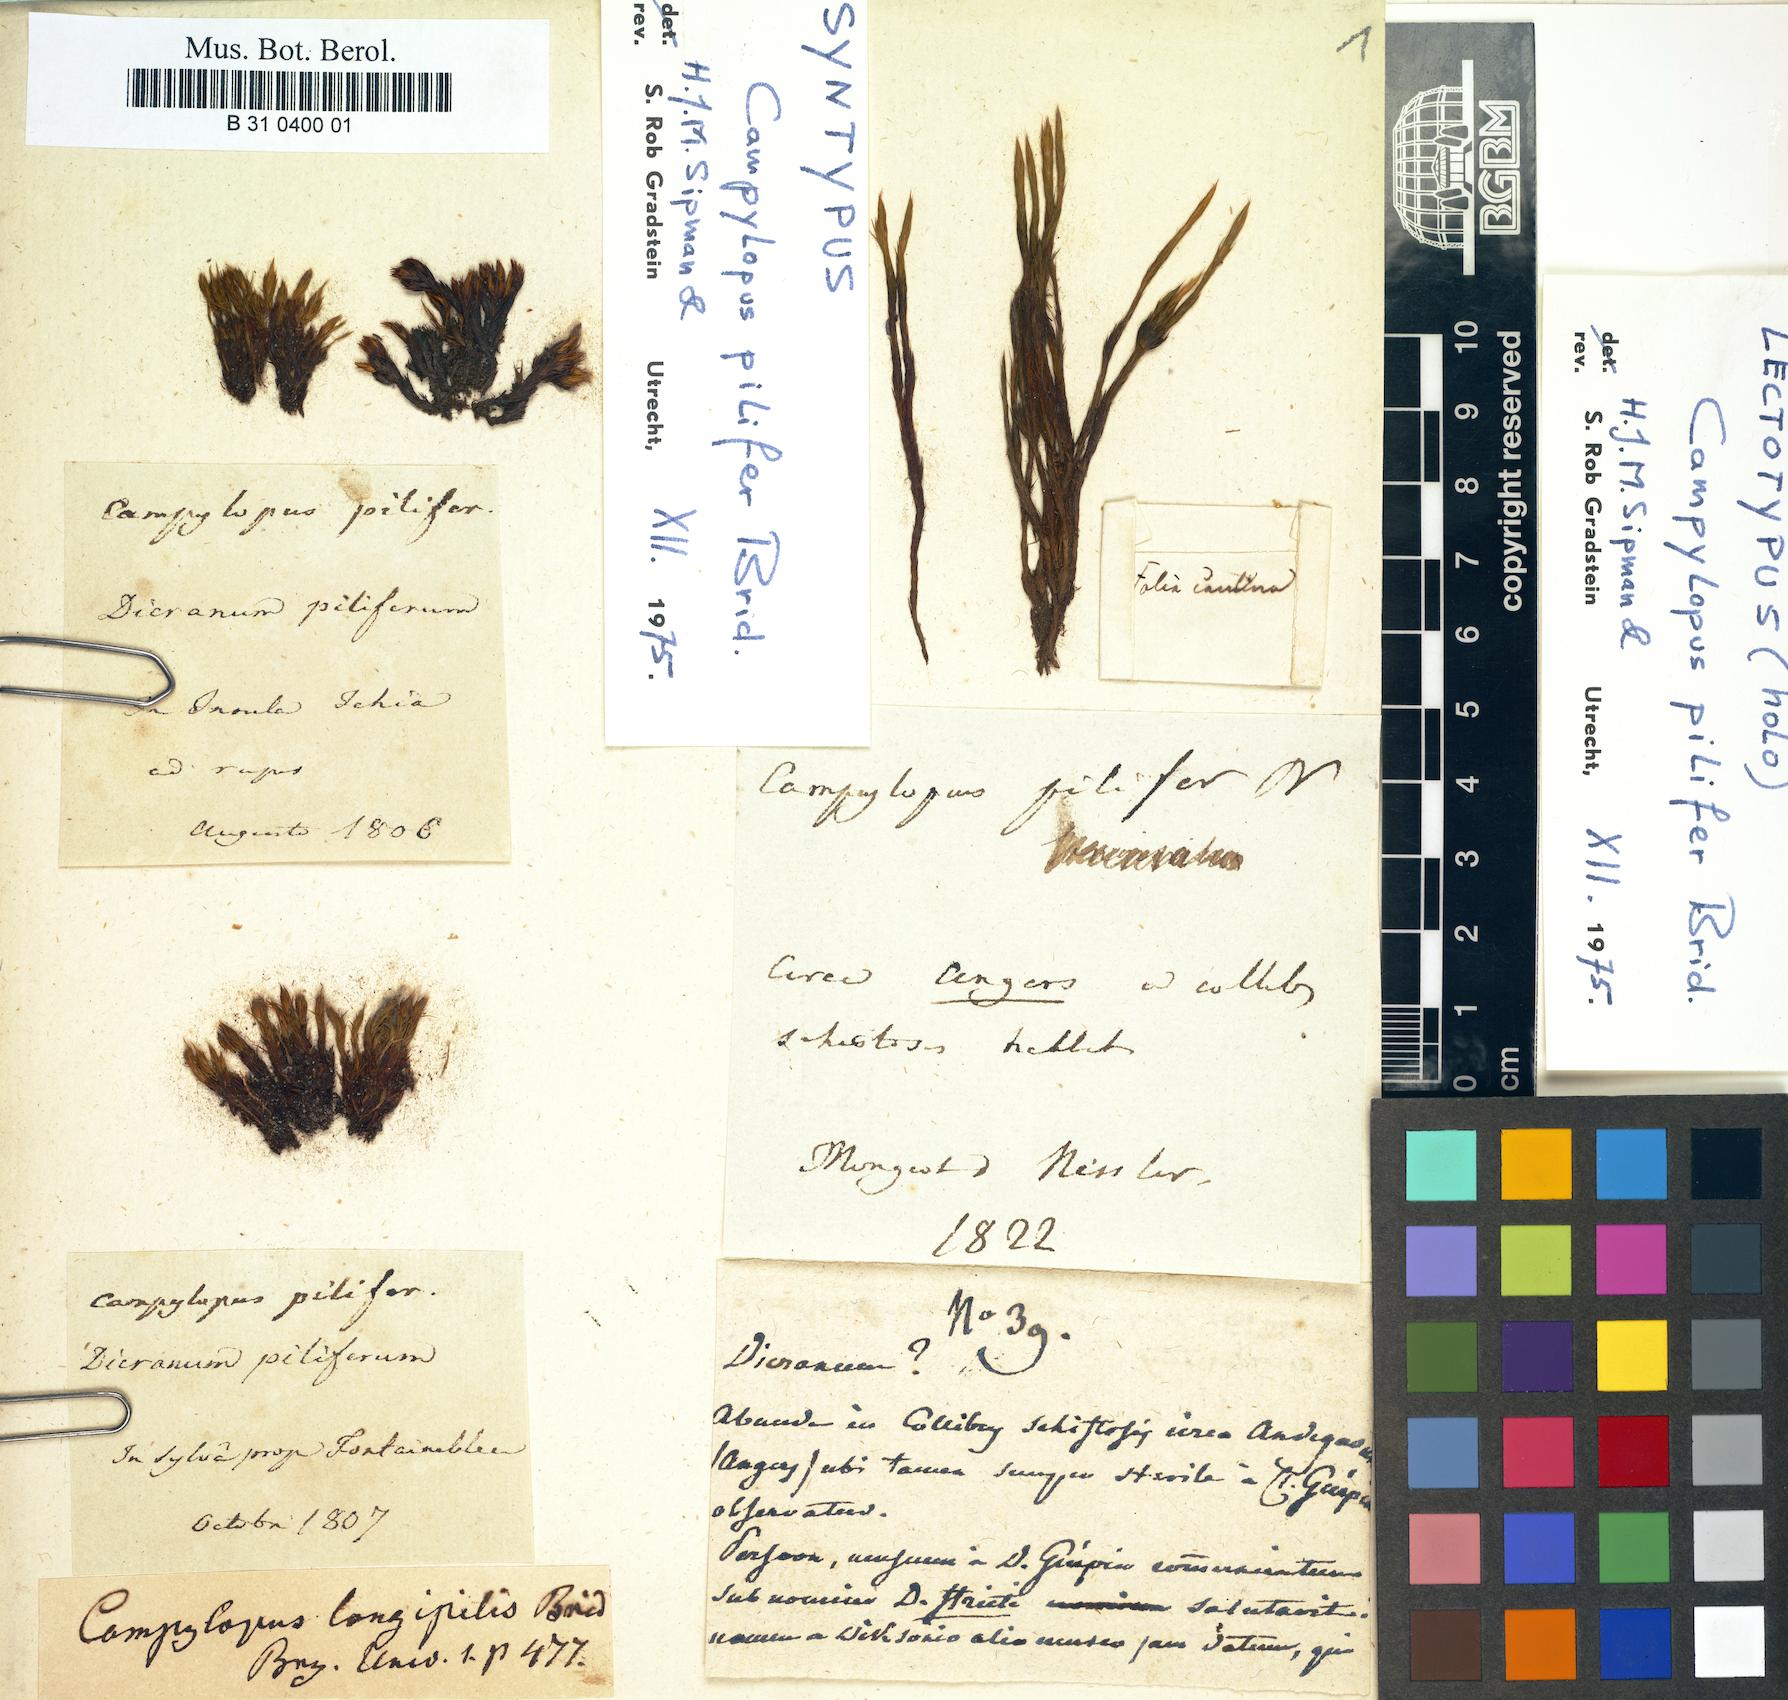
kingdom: Plantae
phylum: Bryophyta
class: Bryopsida
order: Dicranales
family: Leucobryaceae
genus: Campylopus
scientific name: Campylopus pilifer
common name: Campylopus moss
